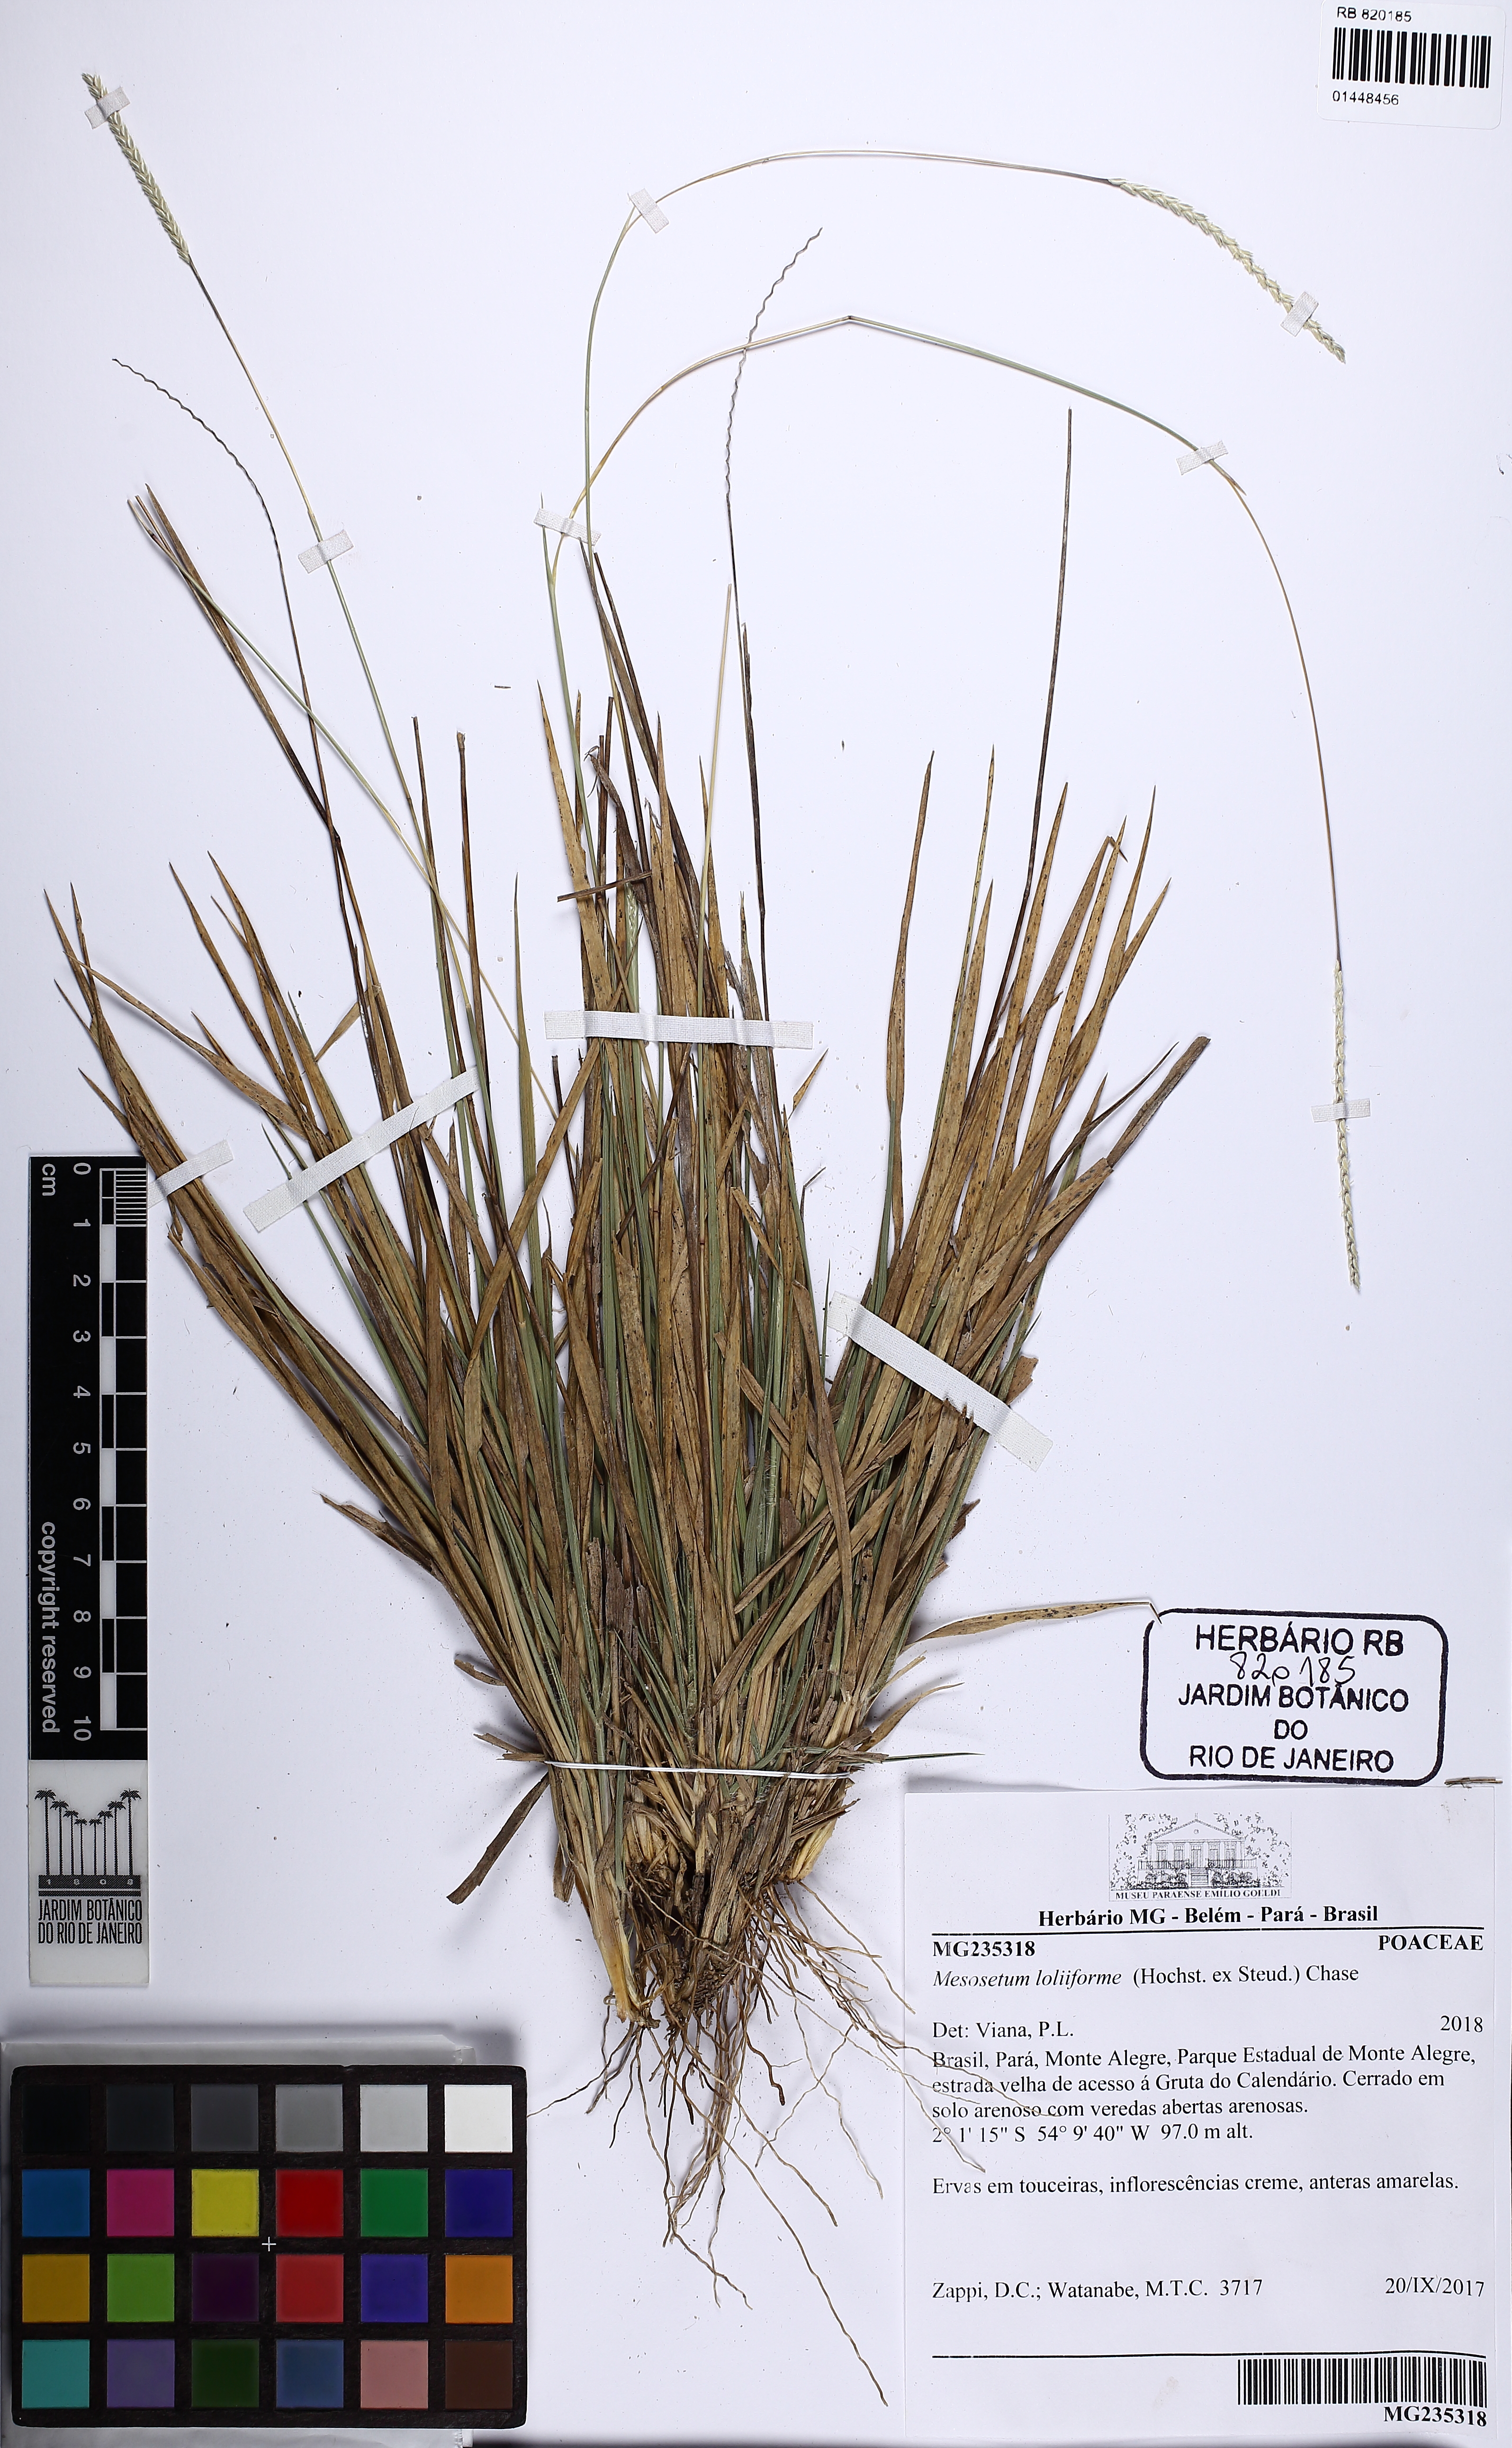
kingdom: Plantae
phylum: Tracheophyta
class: Liliopsida
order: Poales
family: Poaceae
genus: Mesosetum
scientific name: Mesosetum loliiforme
